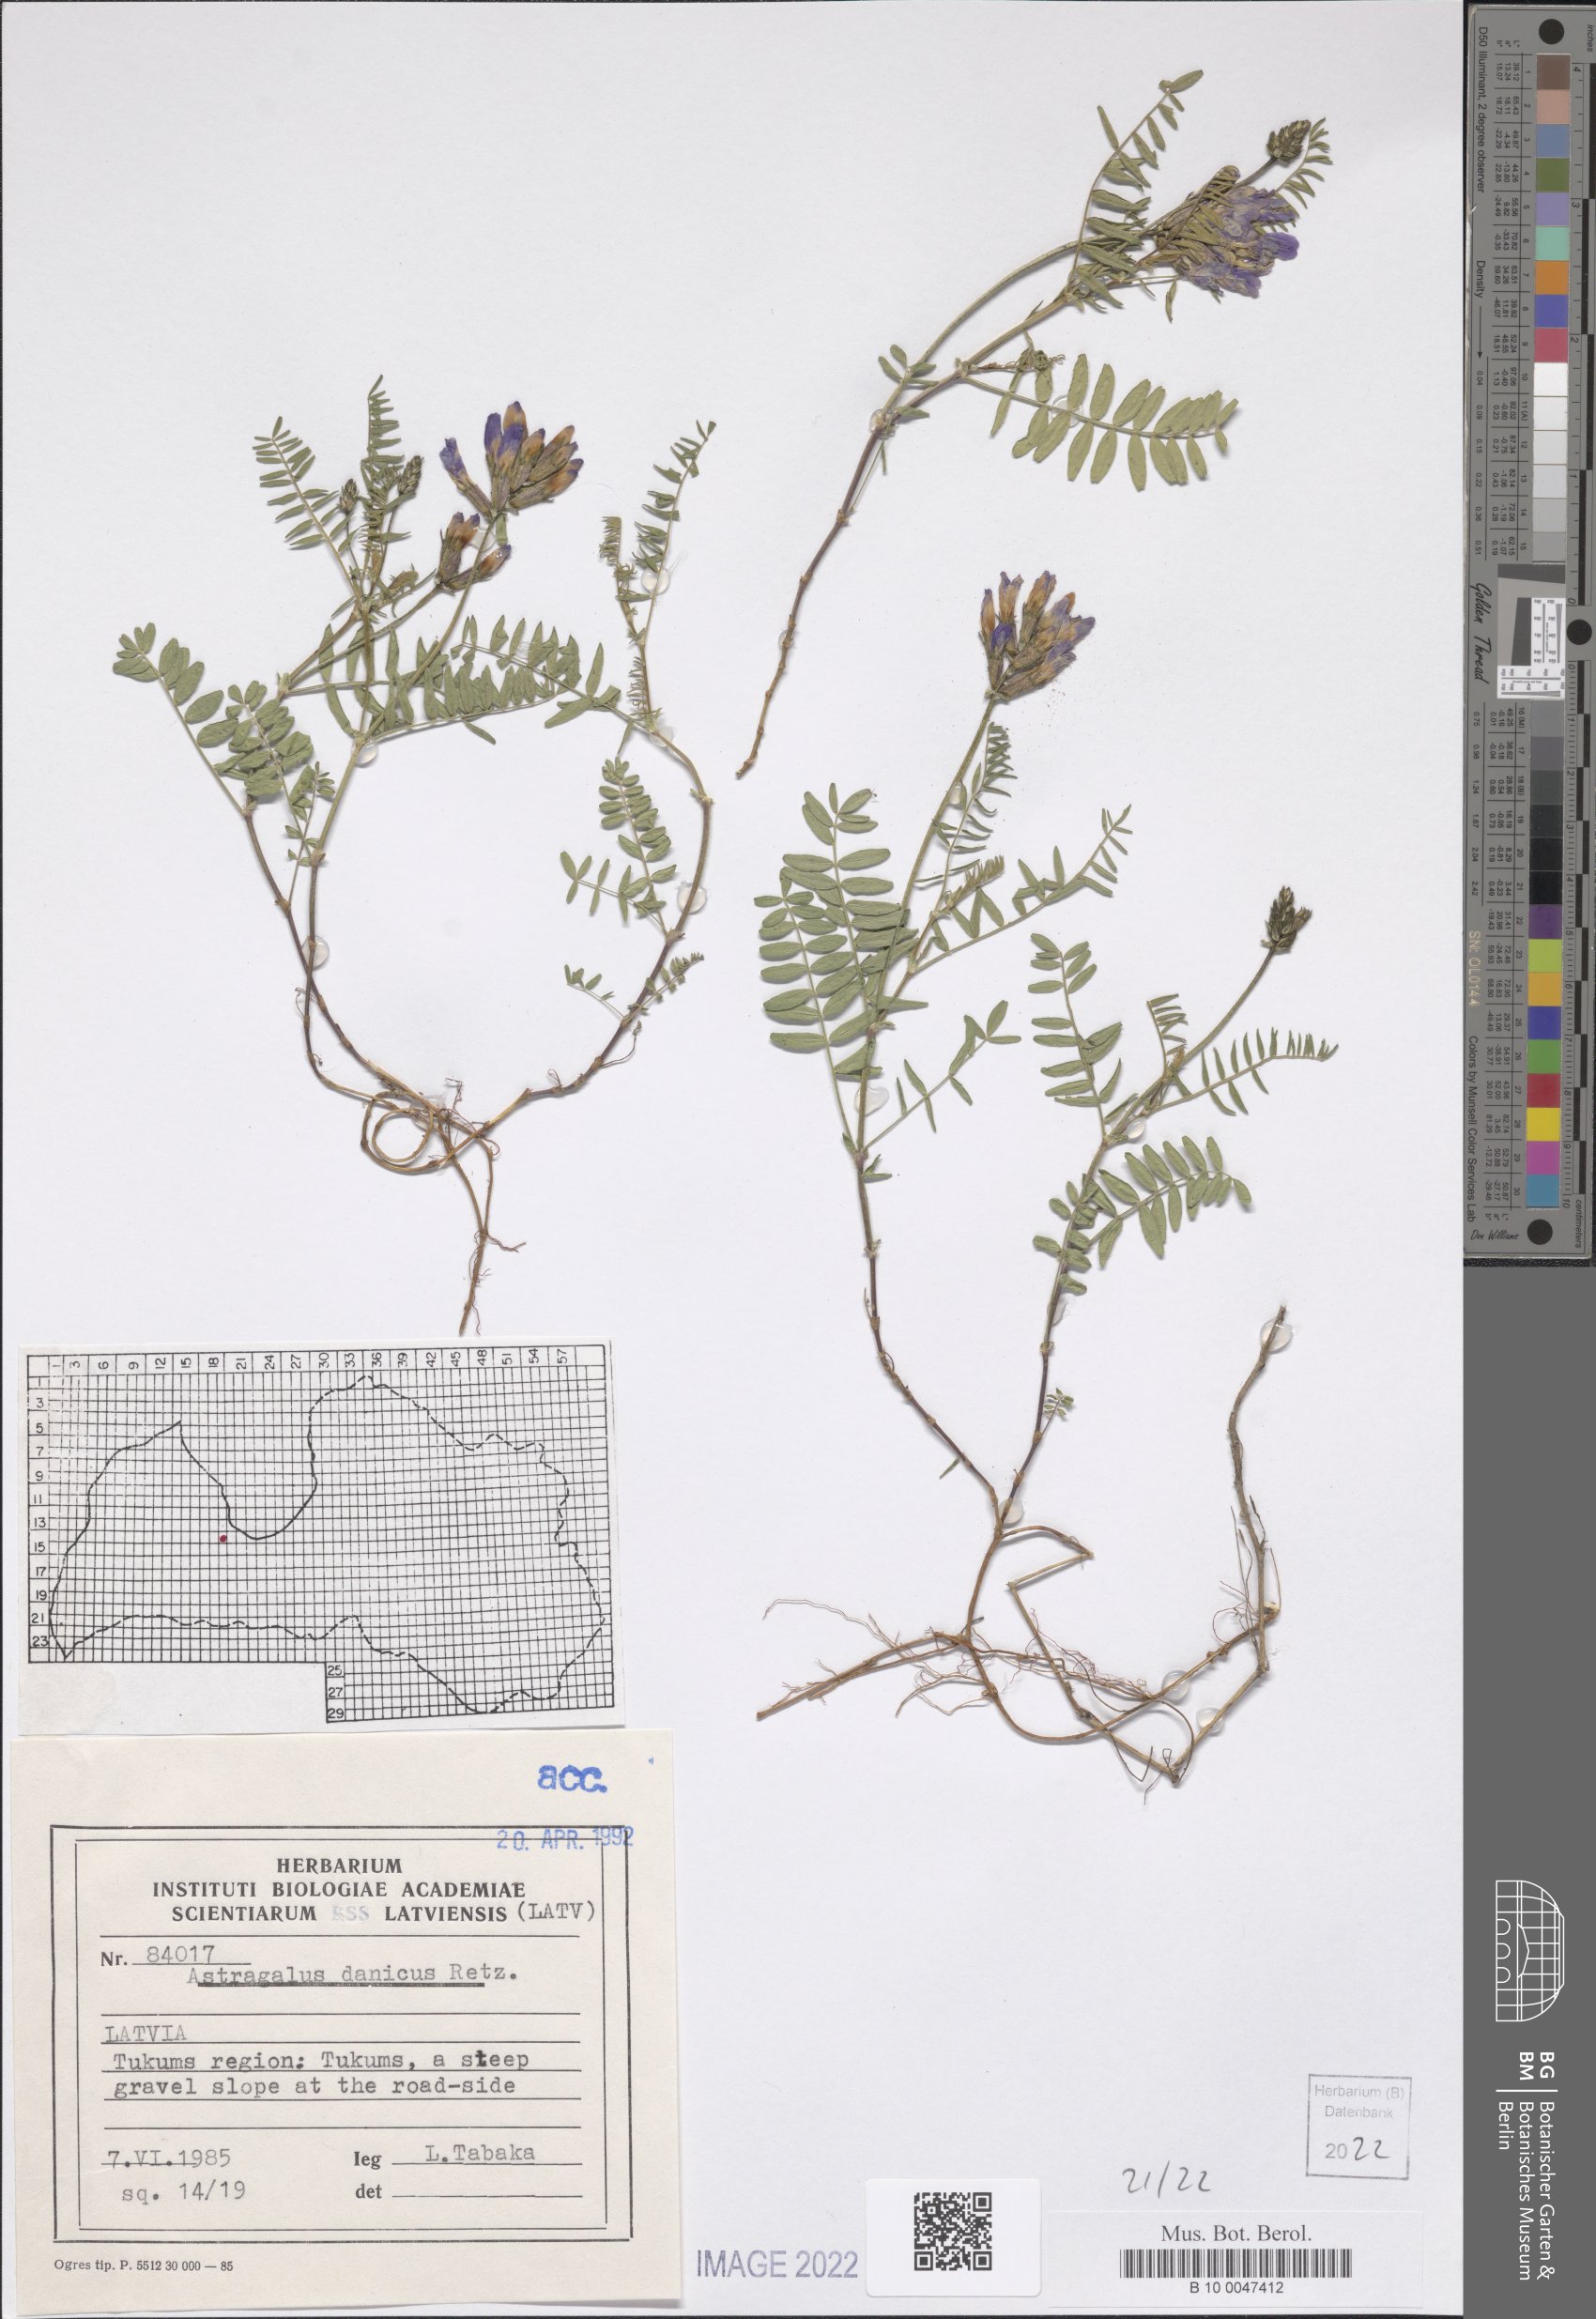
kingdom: Plantae
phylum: Tracheophyta
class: Magnoliopsida
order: Fabales
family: Fabaceae
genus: Astragalus
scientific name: Astragalus danicus
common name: Purple milk-vetch
